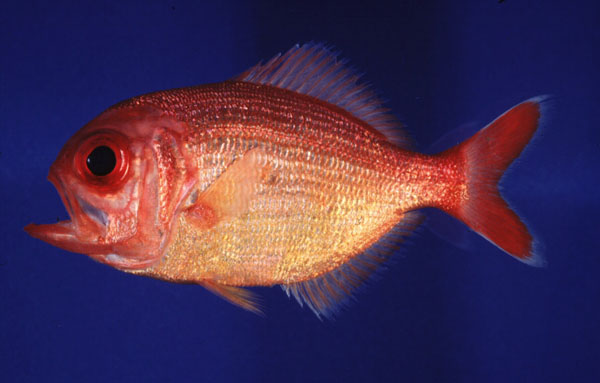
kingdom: Animalia
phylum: Chordata
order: Beryciformes
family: Berycidae
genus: Centroberyx
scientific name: Centroberyx spinosus
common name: Short alfonsino
